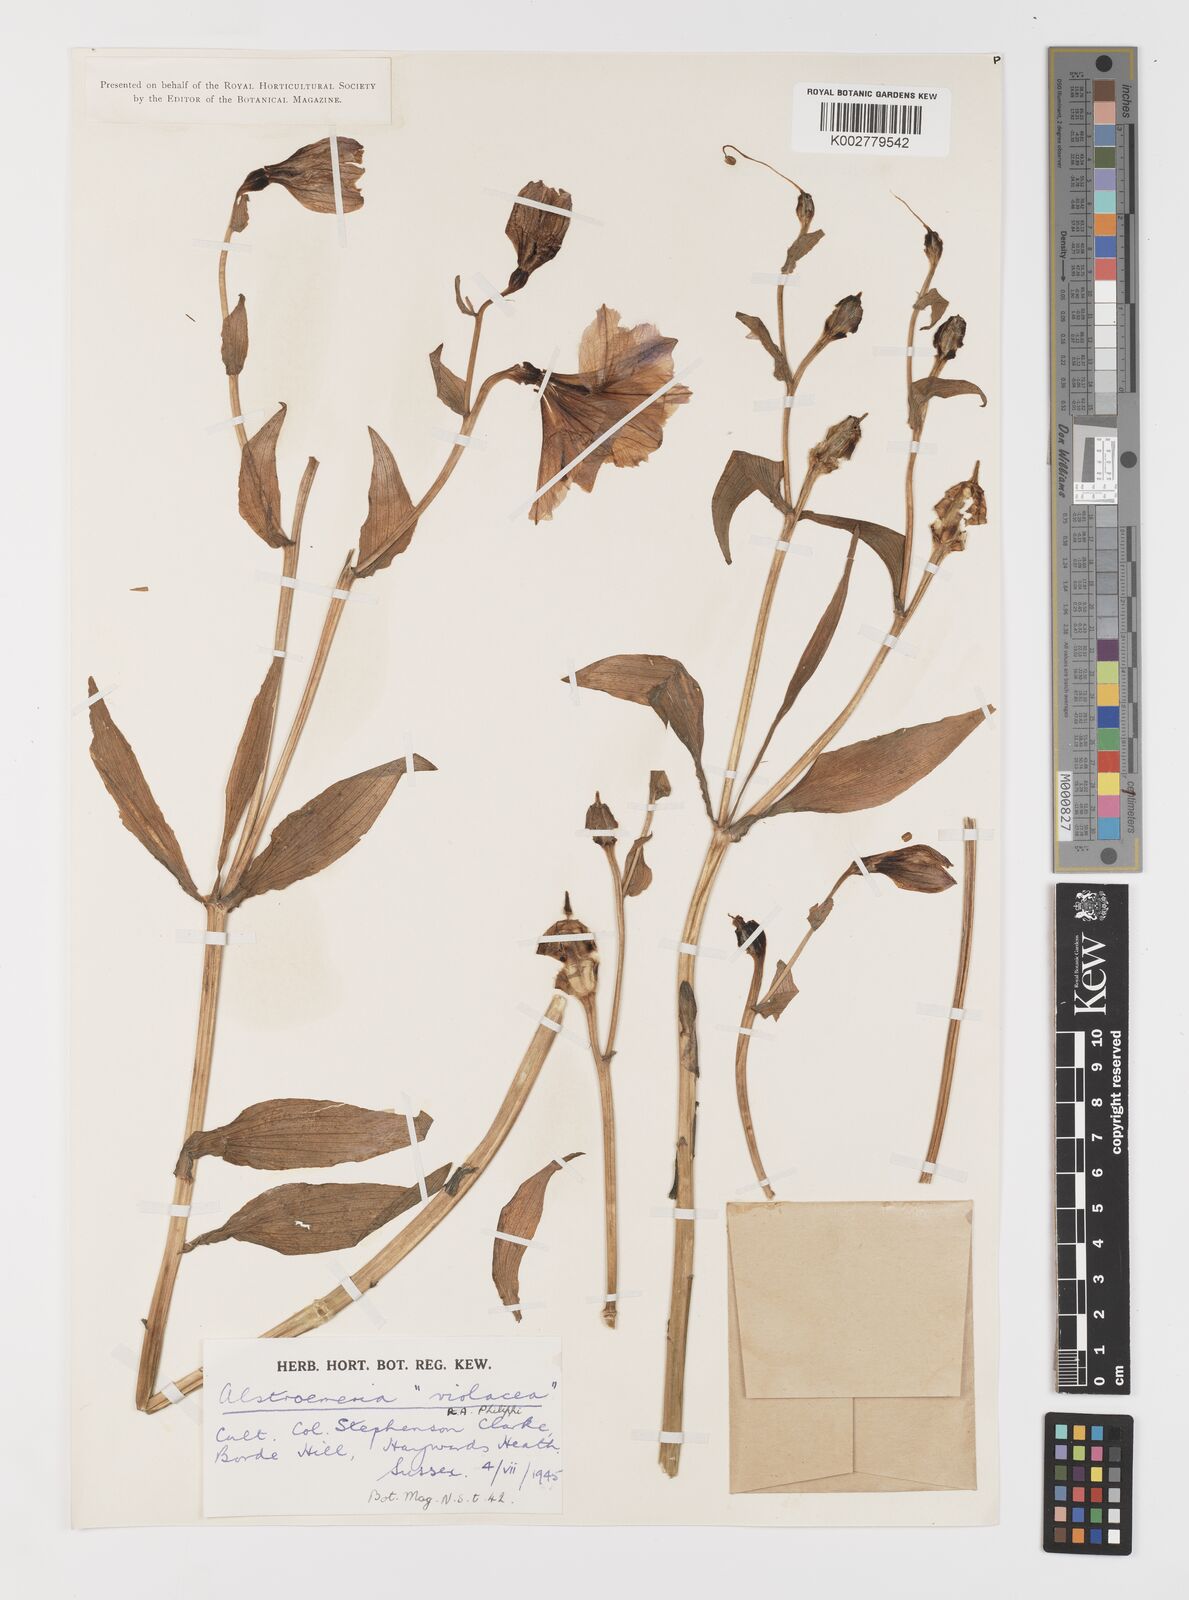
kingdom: Plantae
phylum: Tracheophyta
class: Liliopsida
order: Liliales
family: Alstroemeriaceae
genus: Alstroemeria
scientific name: Alstroemeria paupercula
